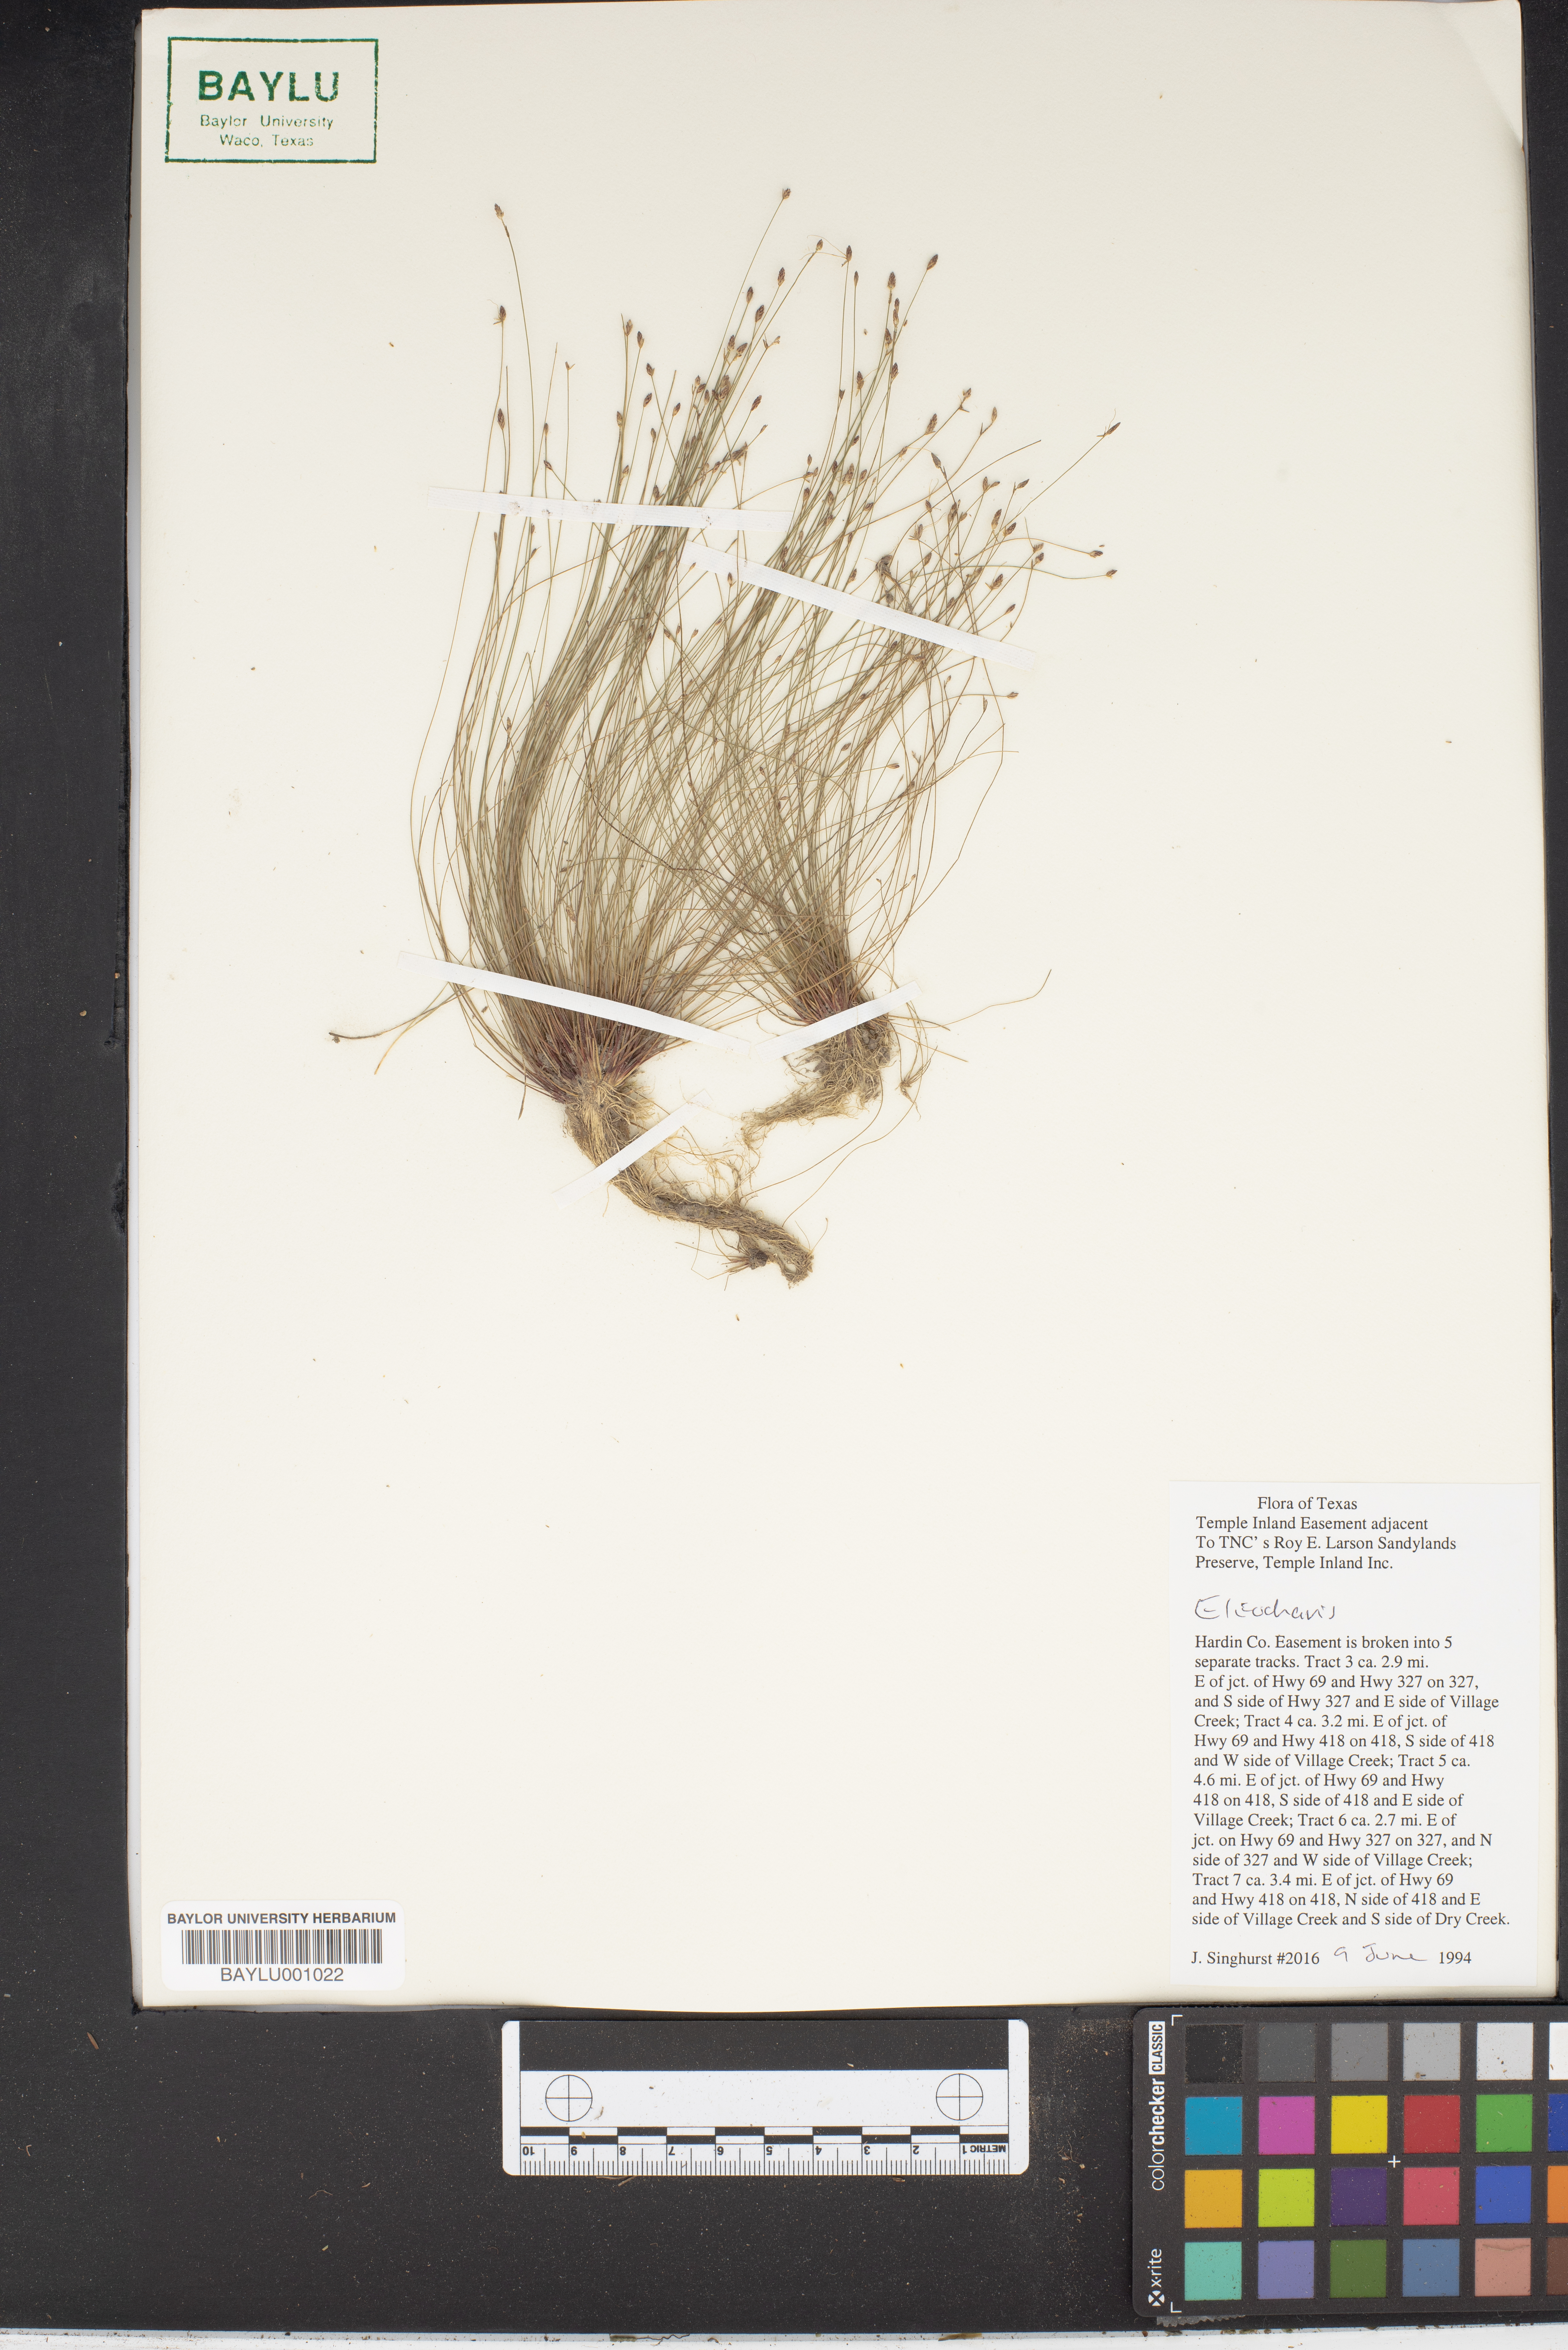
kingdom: Plantae
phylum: Tracheophyta
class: Liliopsida
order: Poales
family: Cyperaceae
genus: Eleocharis
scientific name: Eleocharis
